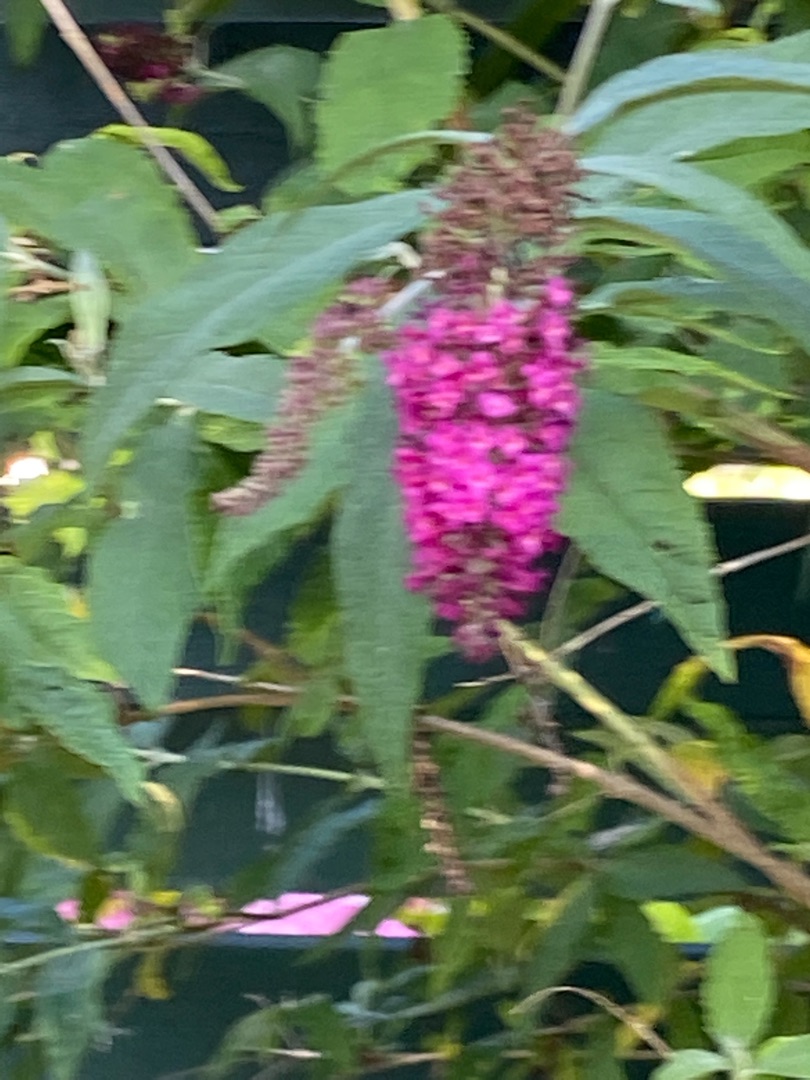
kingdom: Plantae
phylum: Tracheophyta
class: Magnoliopsida
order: Lamiales
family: Scrophulariaceae
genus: Buddleja
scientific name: Buddleja davidii
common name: Sommerfuglebusk
